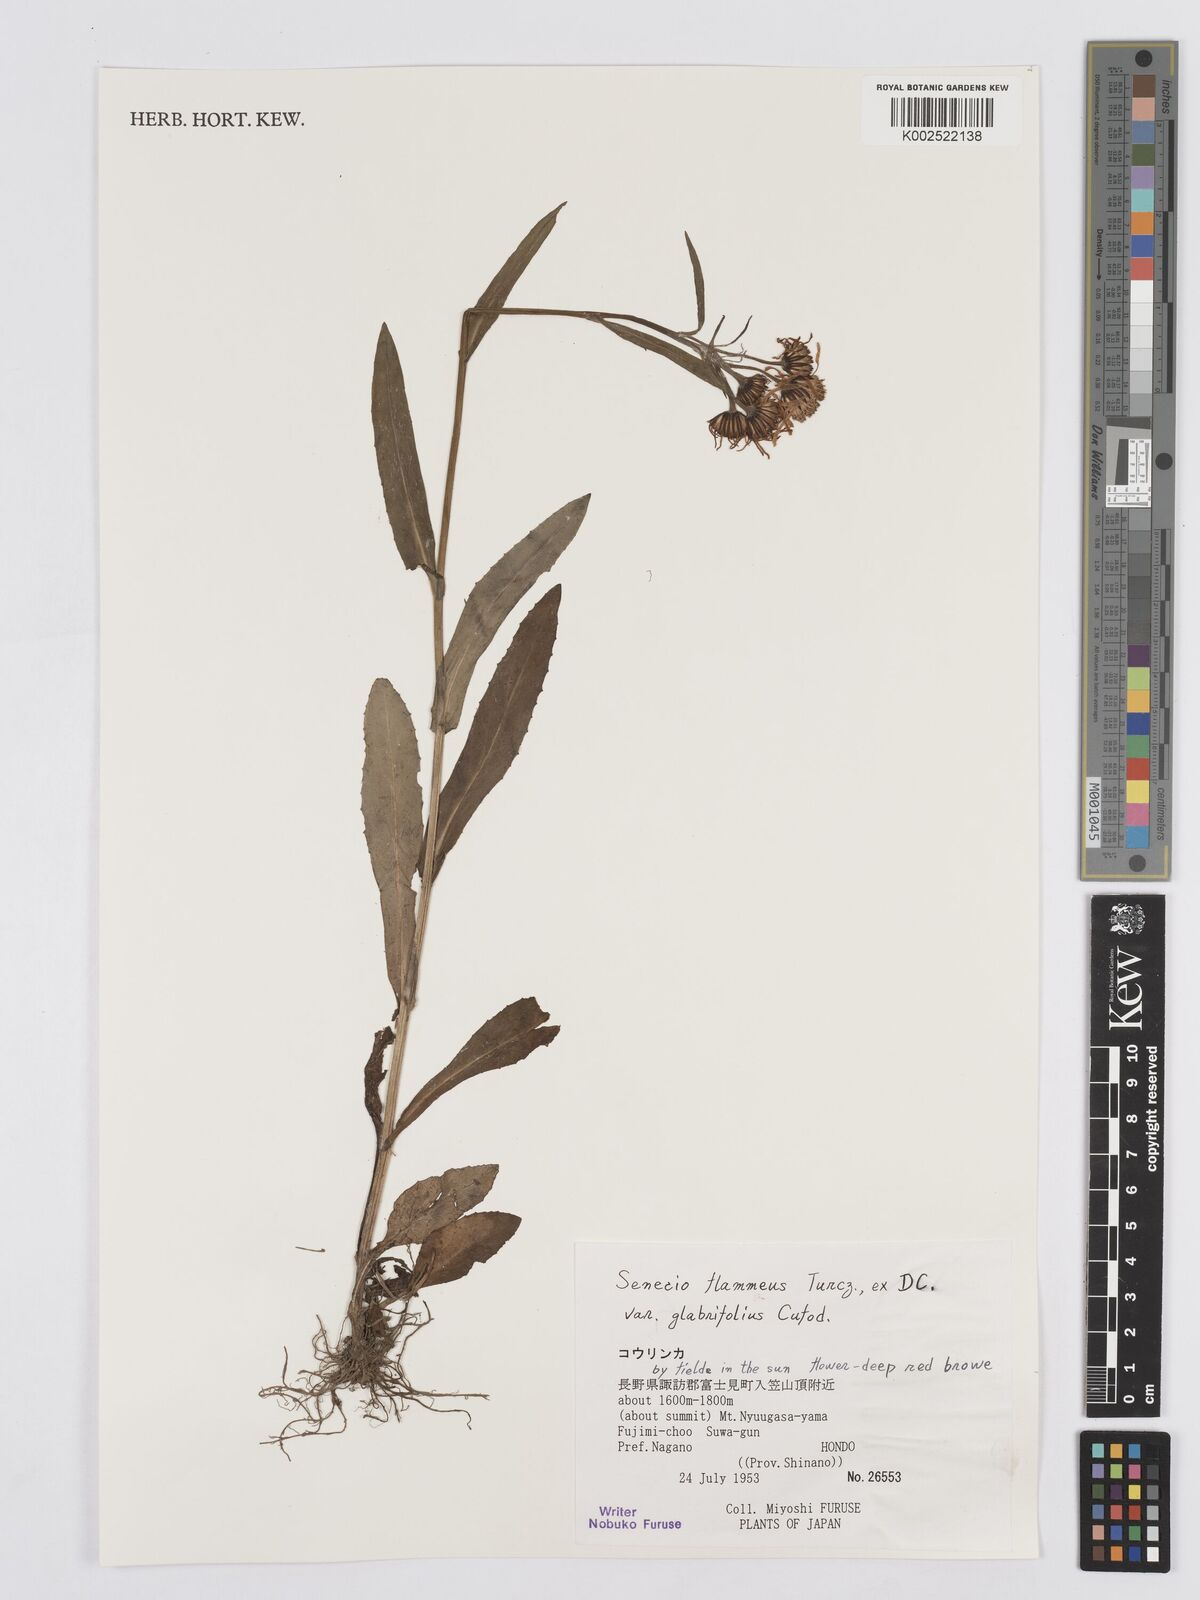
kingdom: Plantae
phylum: Tracheophyta
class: Magnoliopsida
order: Asterales
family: Asteraceae
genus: Tephroseris
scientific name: Tephroseris flammea
